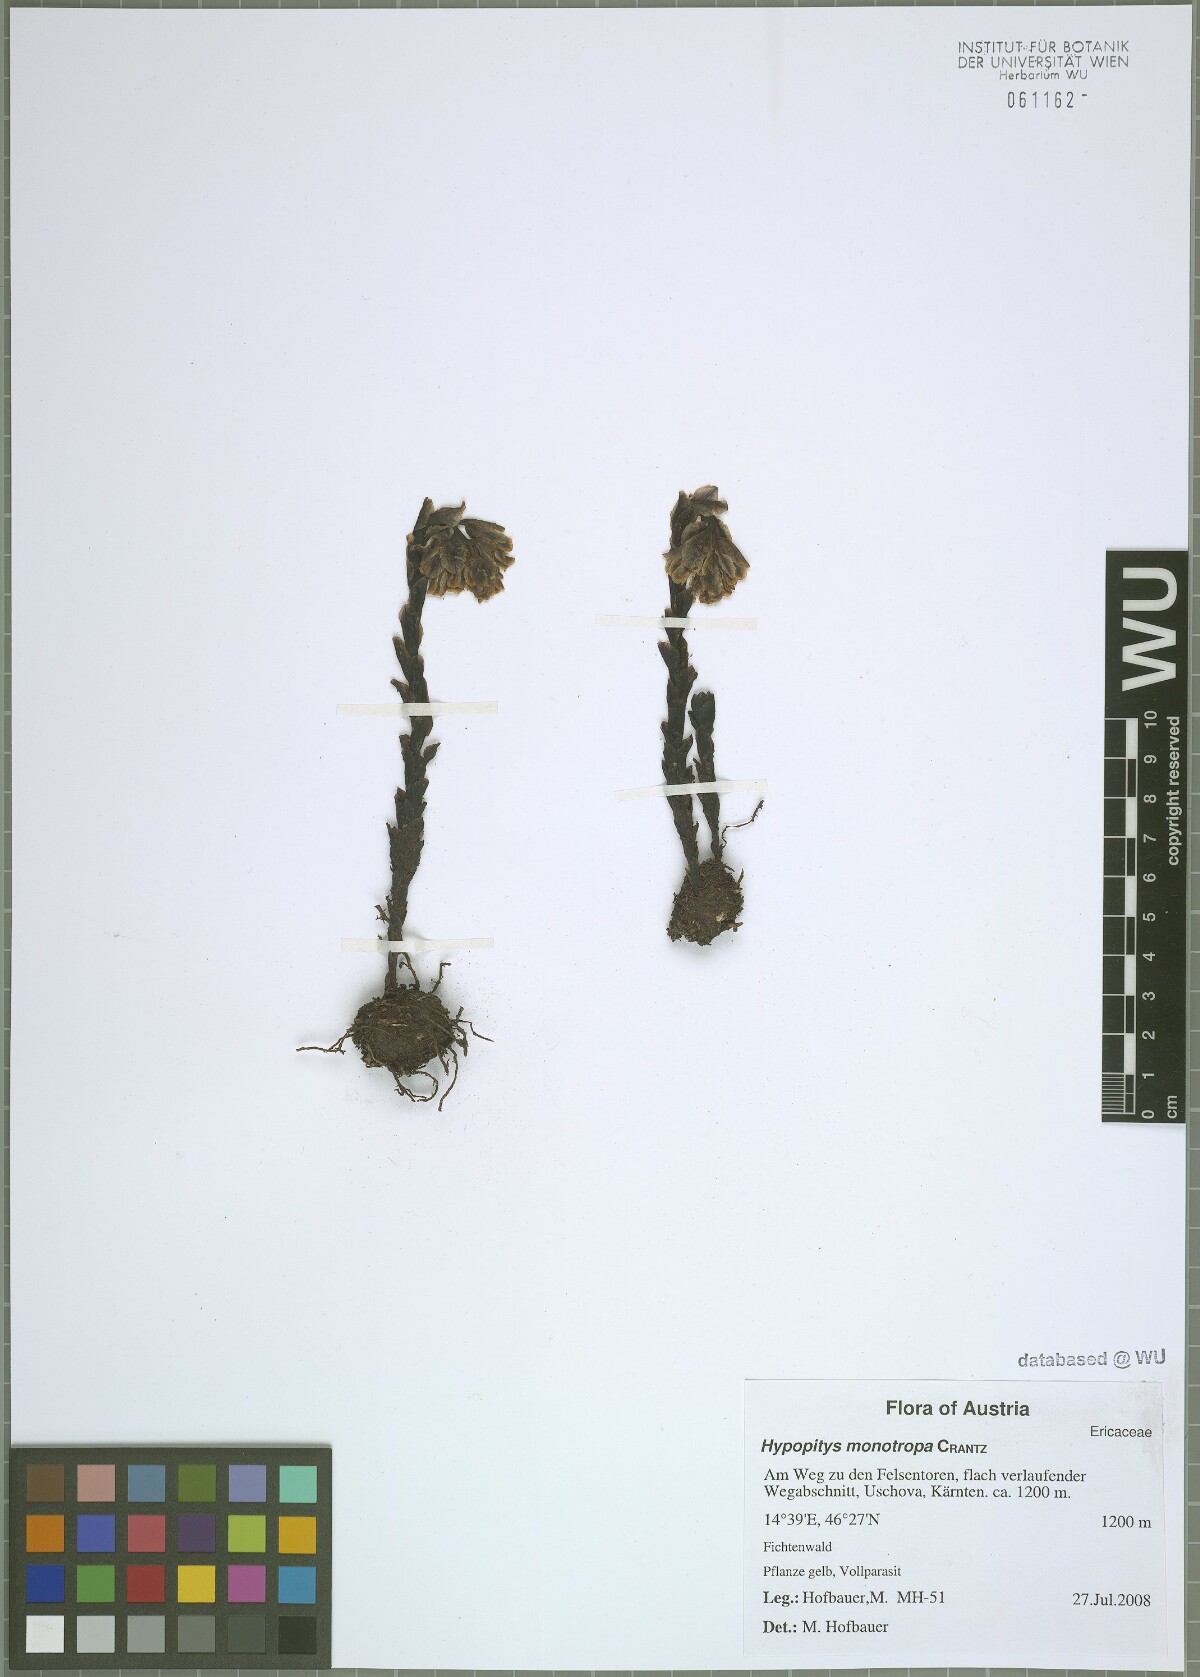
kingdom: Plantae
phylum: Tracheophyta
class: Magnoliopsida
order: Ericales
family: Ericaceae
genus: Hypopitys
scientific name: Hypopitys monotropa
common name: Yellow bird's-nest
